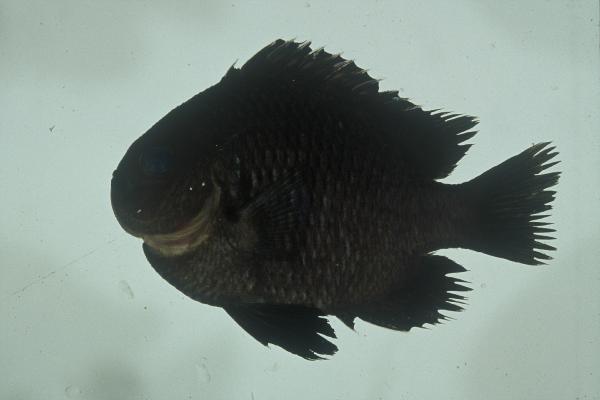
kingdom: Animalia
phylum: Chordata
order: Perciformes
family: Pomacentridae
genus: Dascyllus
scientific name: Dascyllus trimaculatus
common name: Threespot dascyllus
